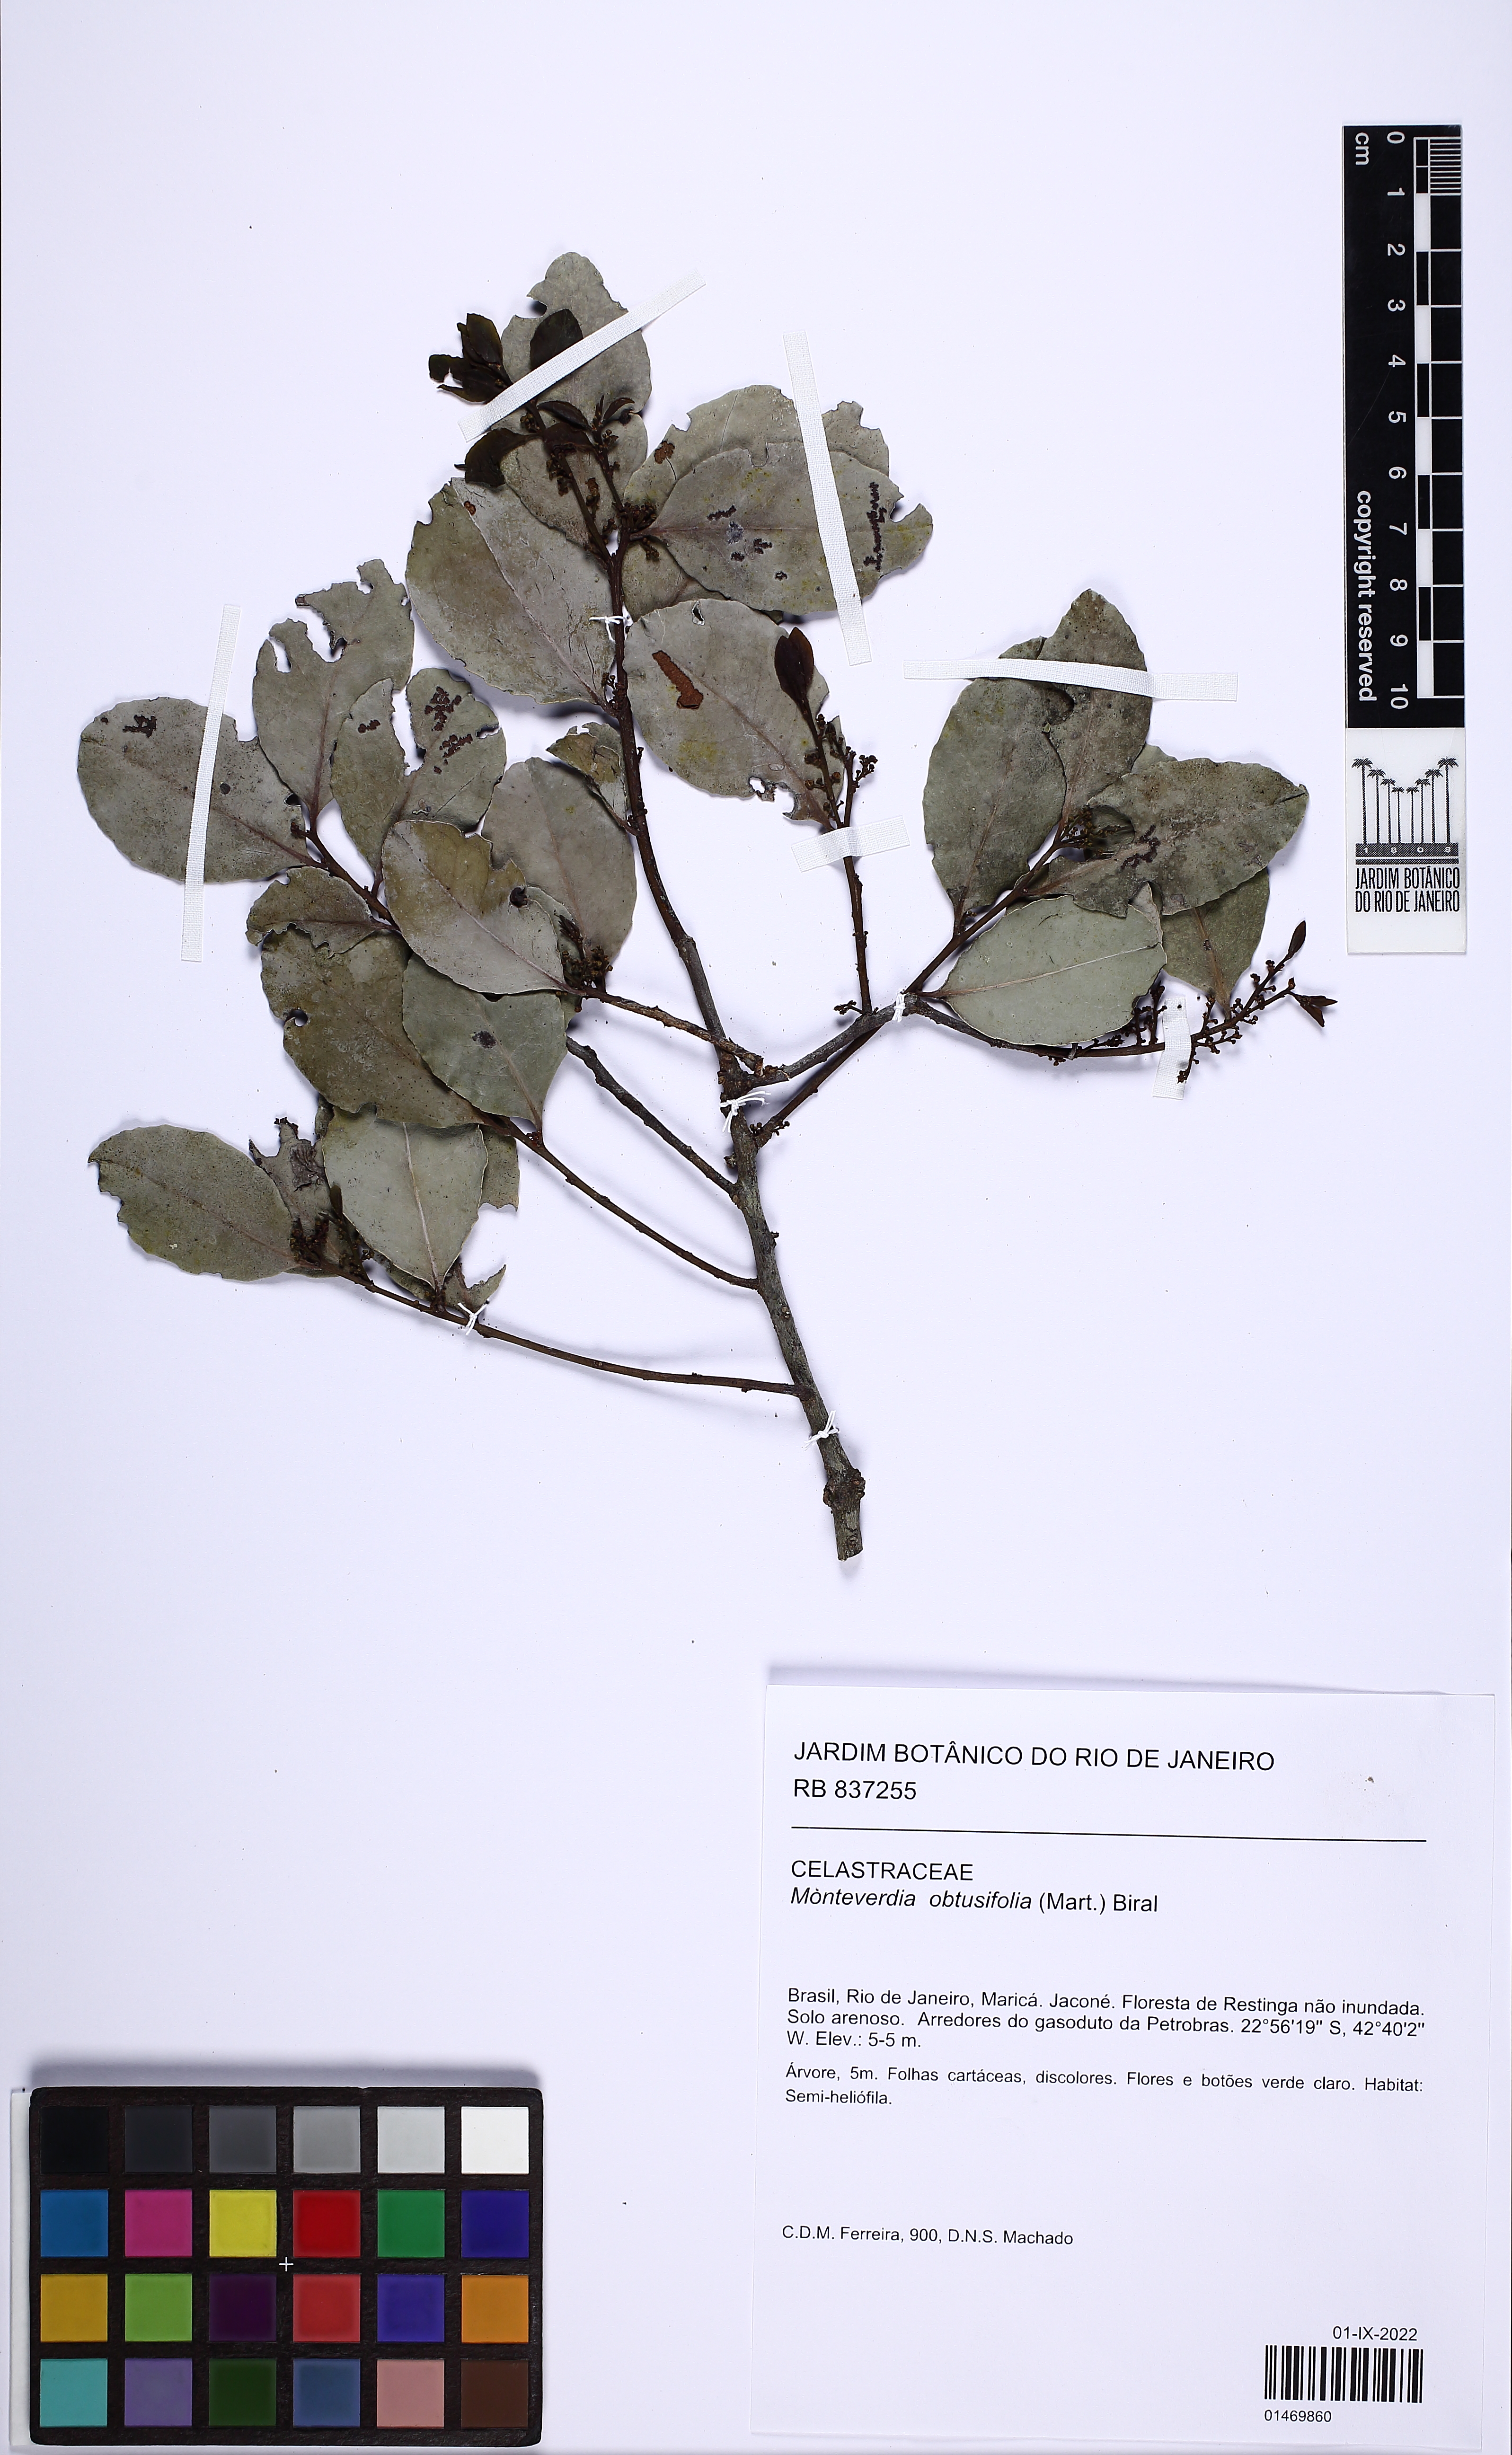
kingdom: Plantae
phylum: Tracheophyta
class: Magnoliopsida
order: Celastrales
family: Celastraceae
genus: Monteverdia
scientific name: Monteverdia obtusifolia
